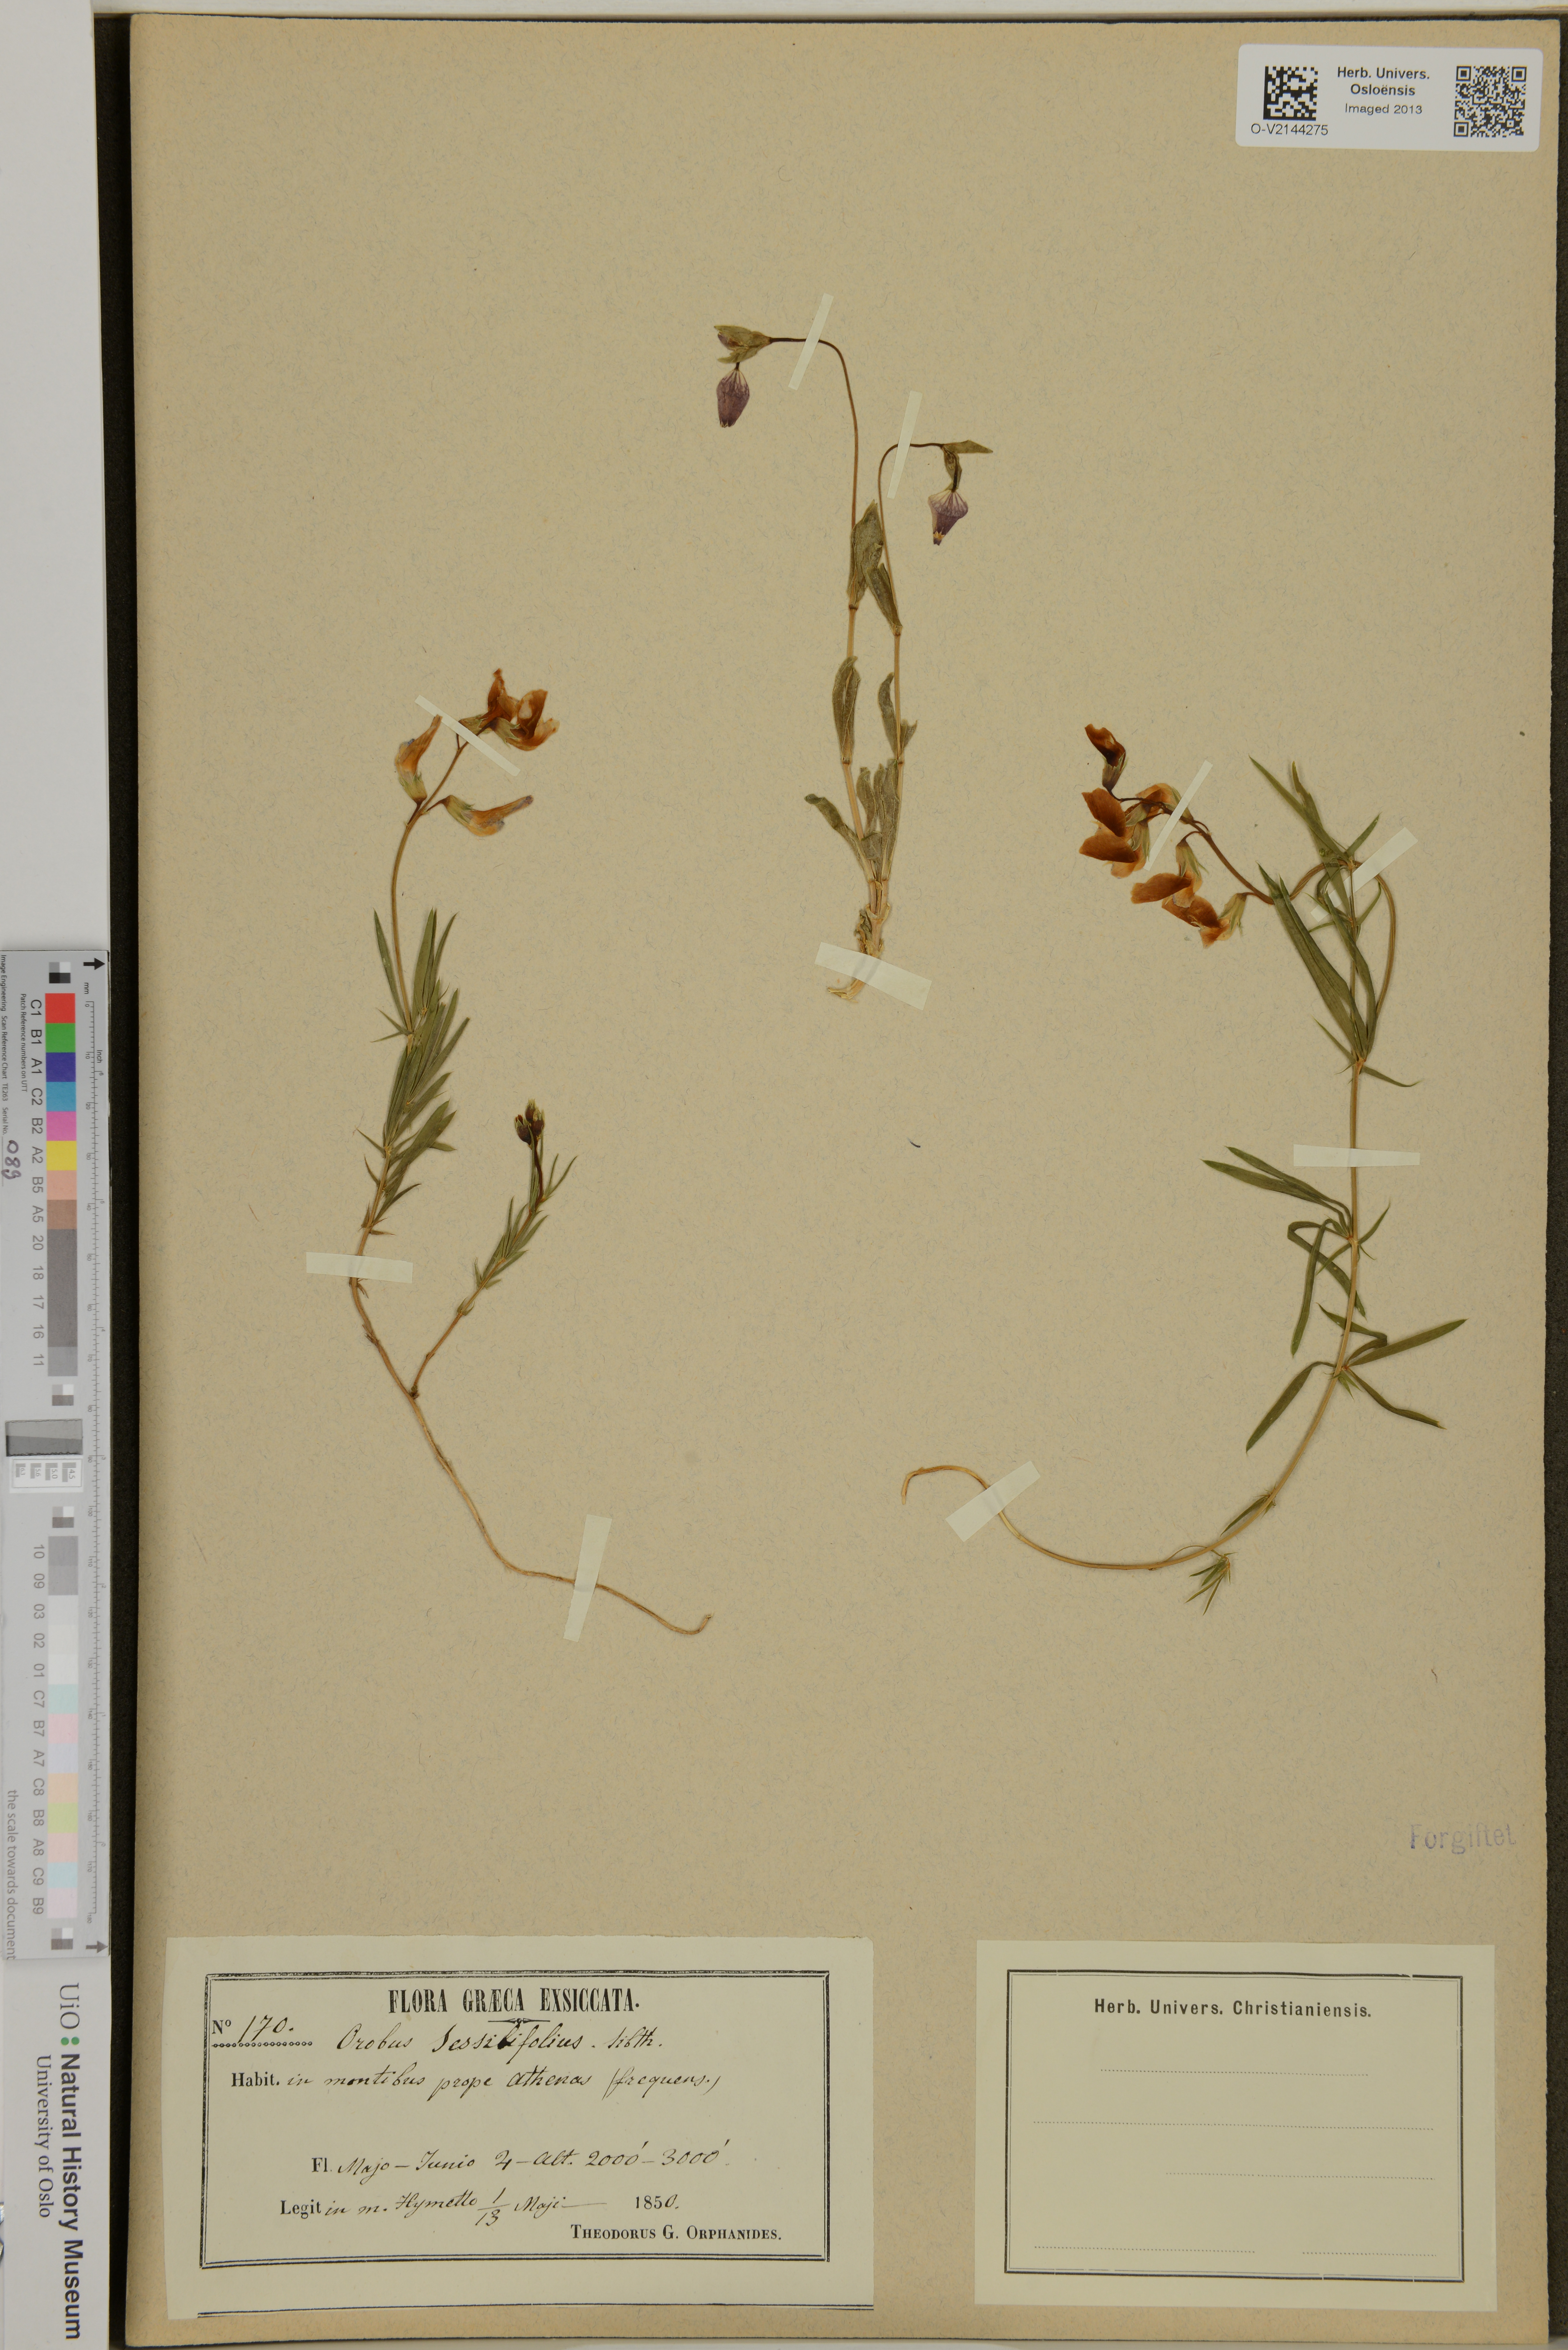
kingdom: Plantae
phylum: Tracheophyta
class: Magnoliopsida
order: Fabales
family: Fabaceae
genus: Lathyrus
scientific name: Lathyrus
